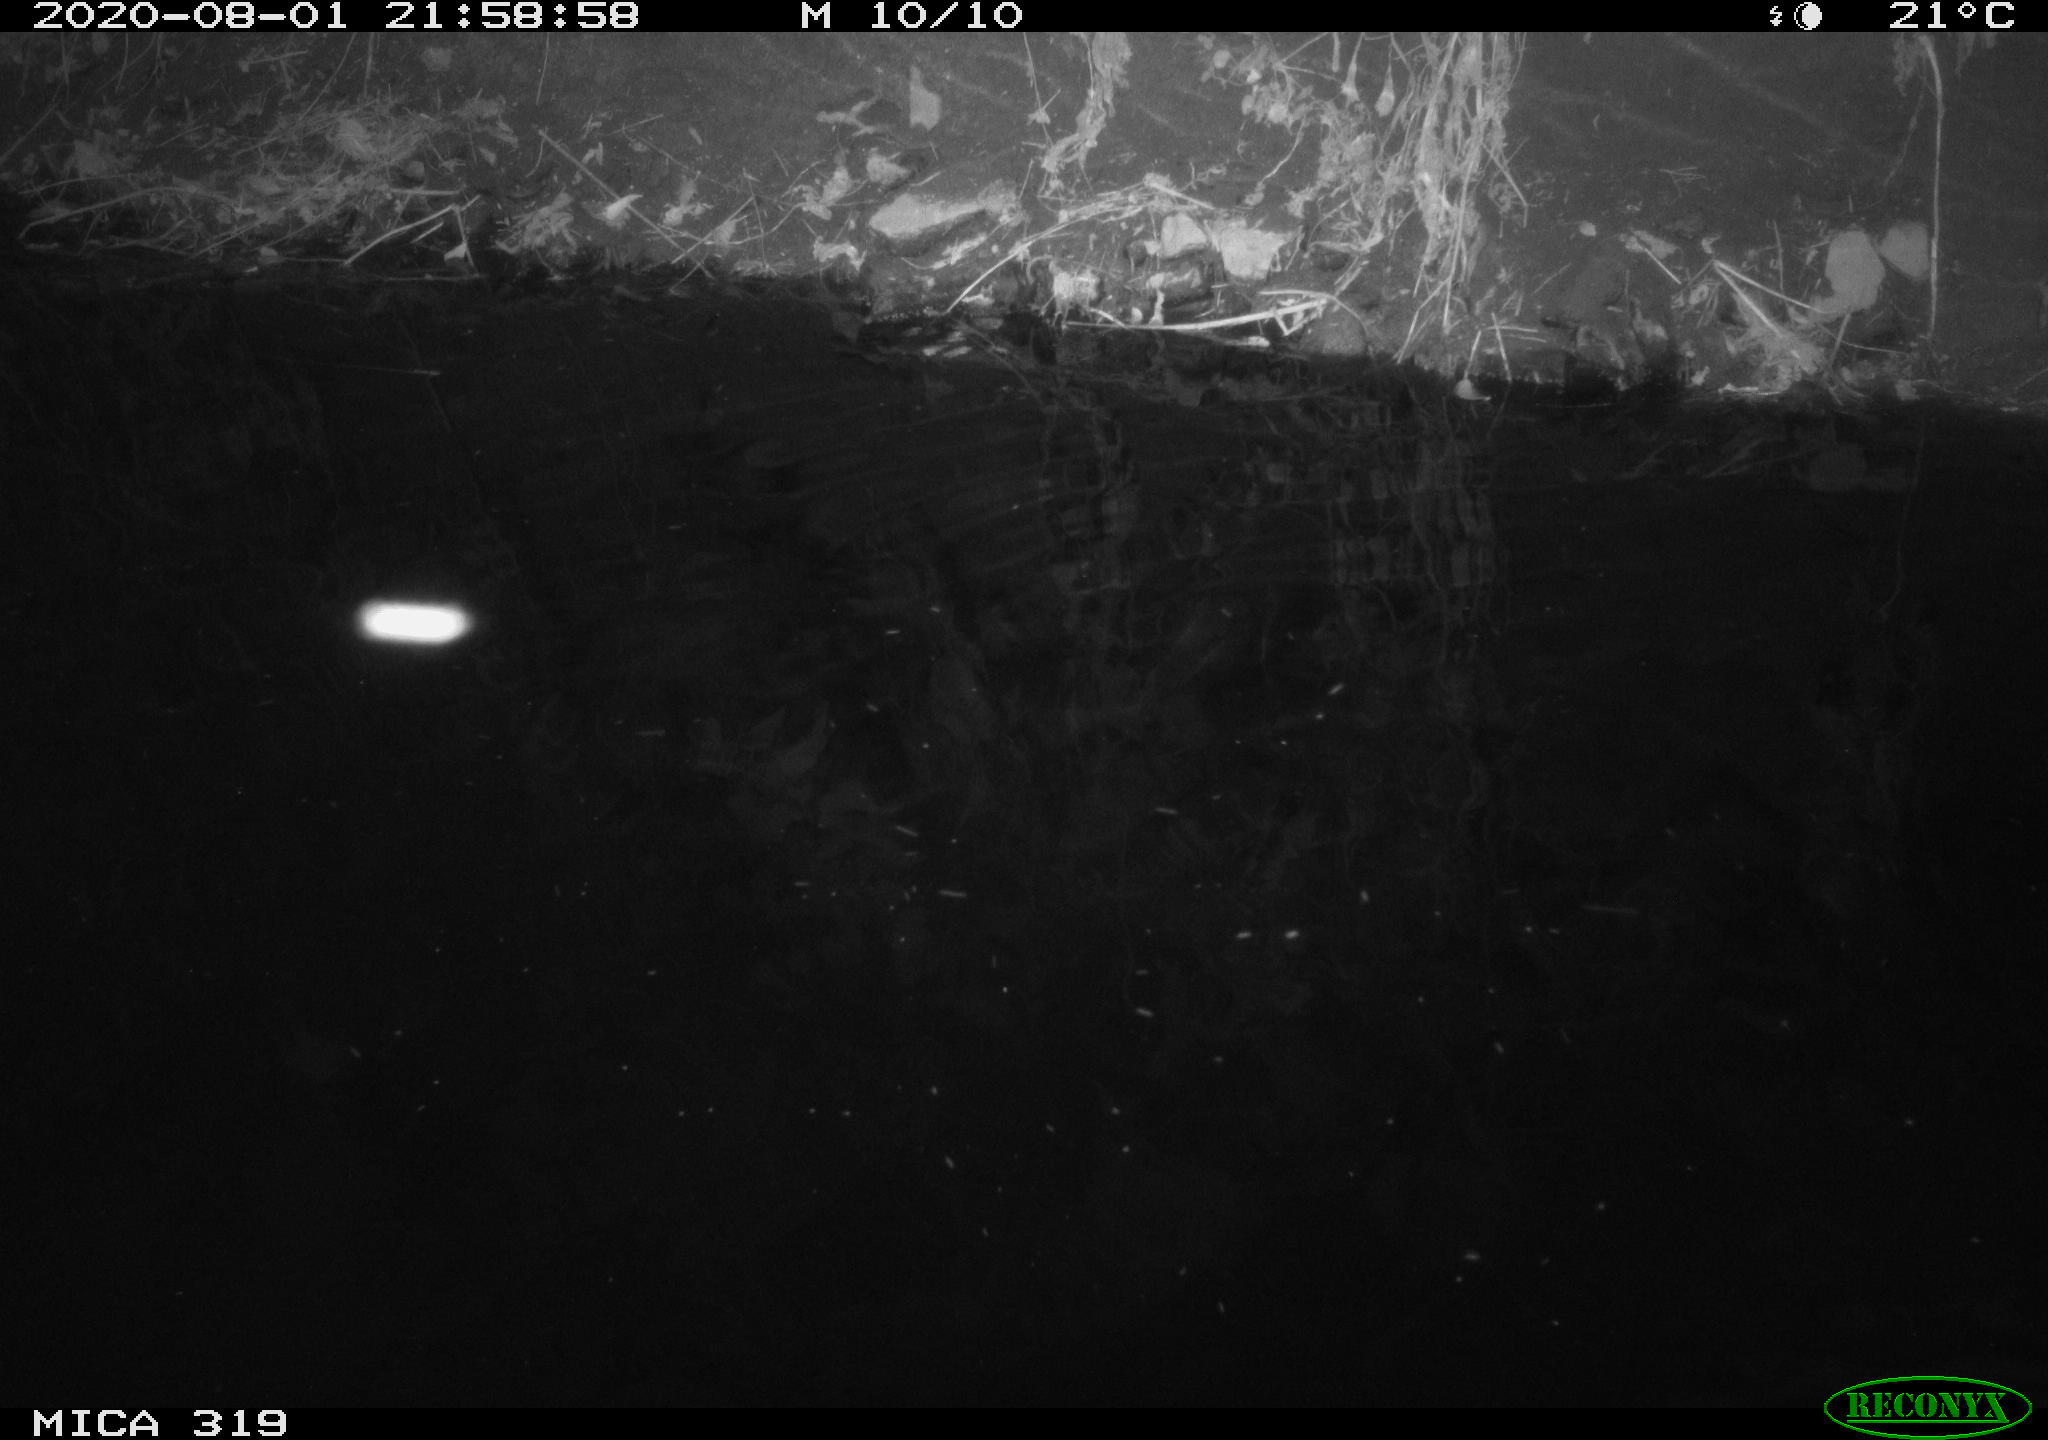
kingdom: Animalia
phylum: Chordata
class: Aves
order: Anseriformes
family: Anatidae
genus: Anas
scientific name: Anas platyrhynchos
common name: Mallard
